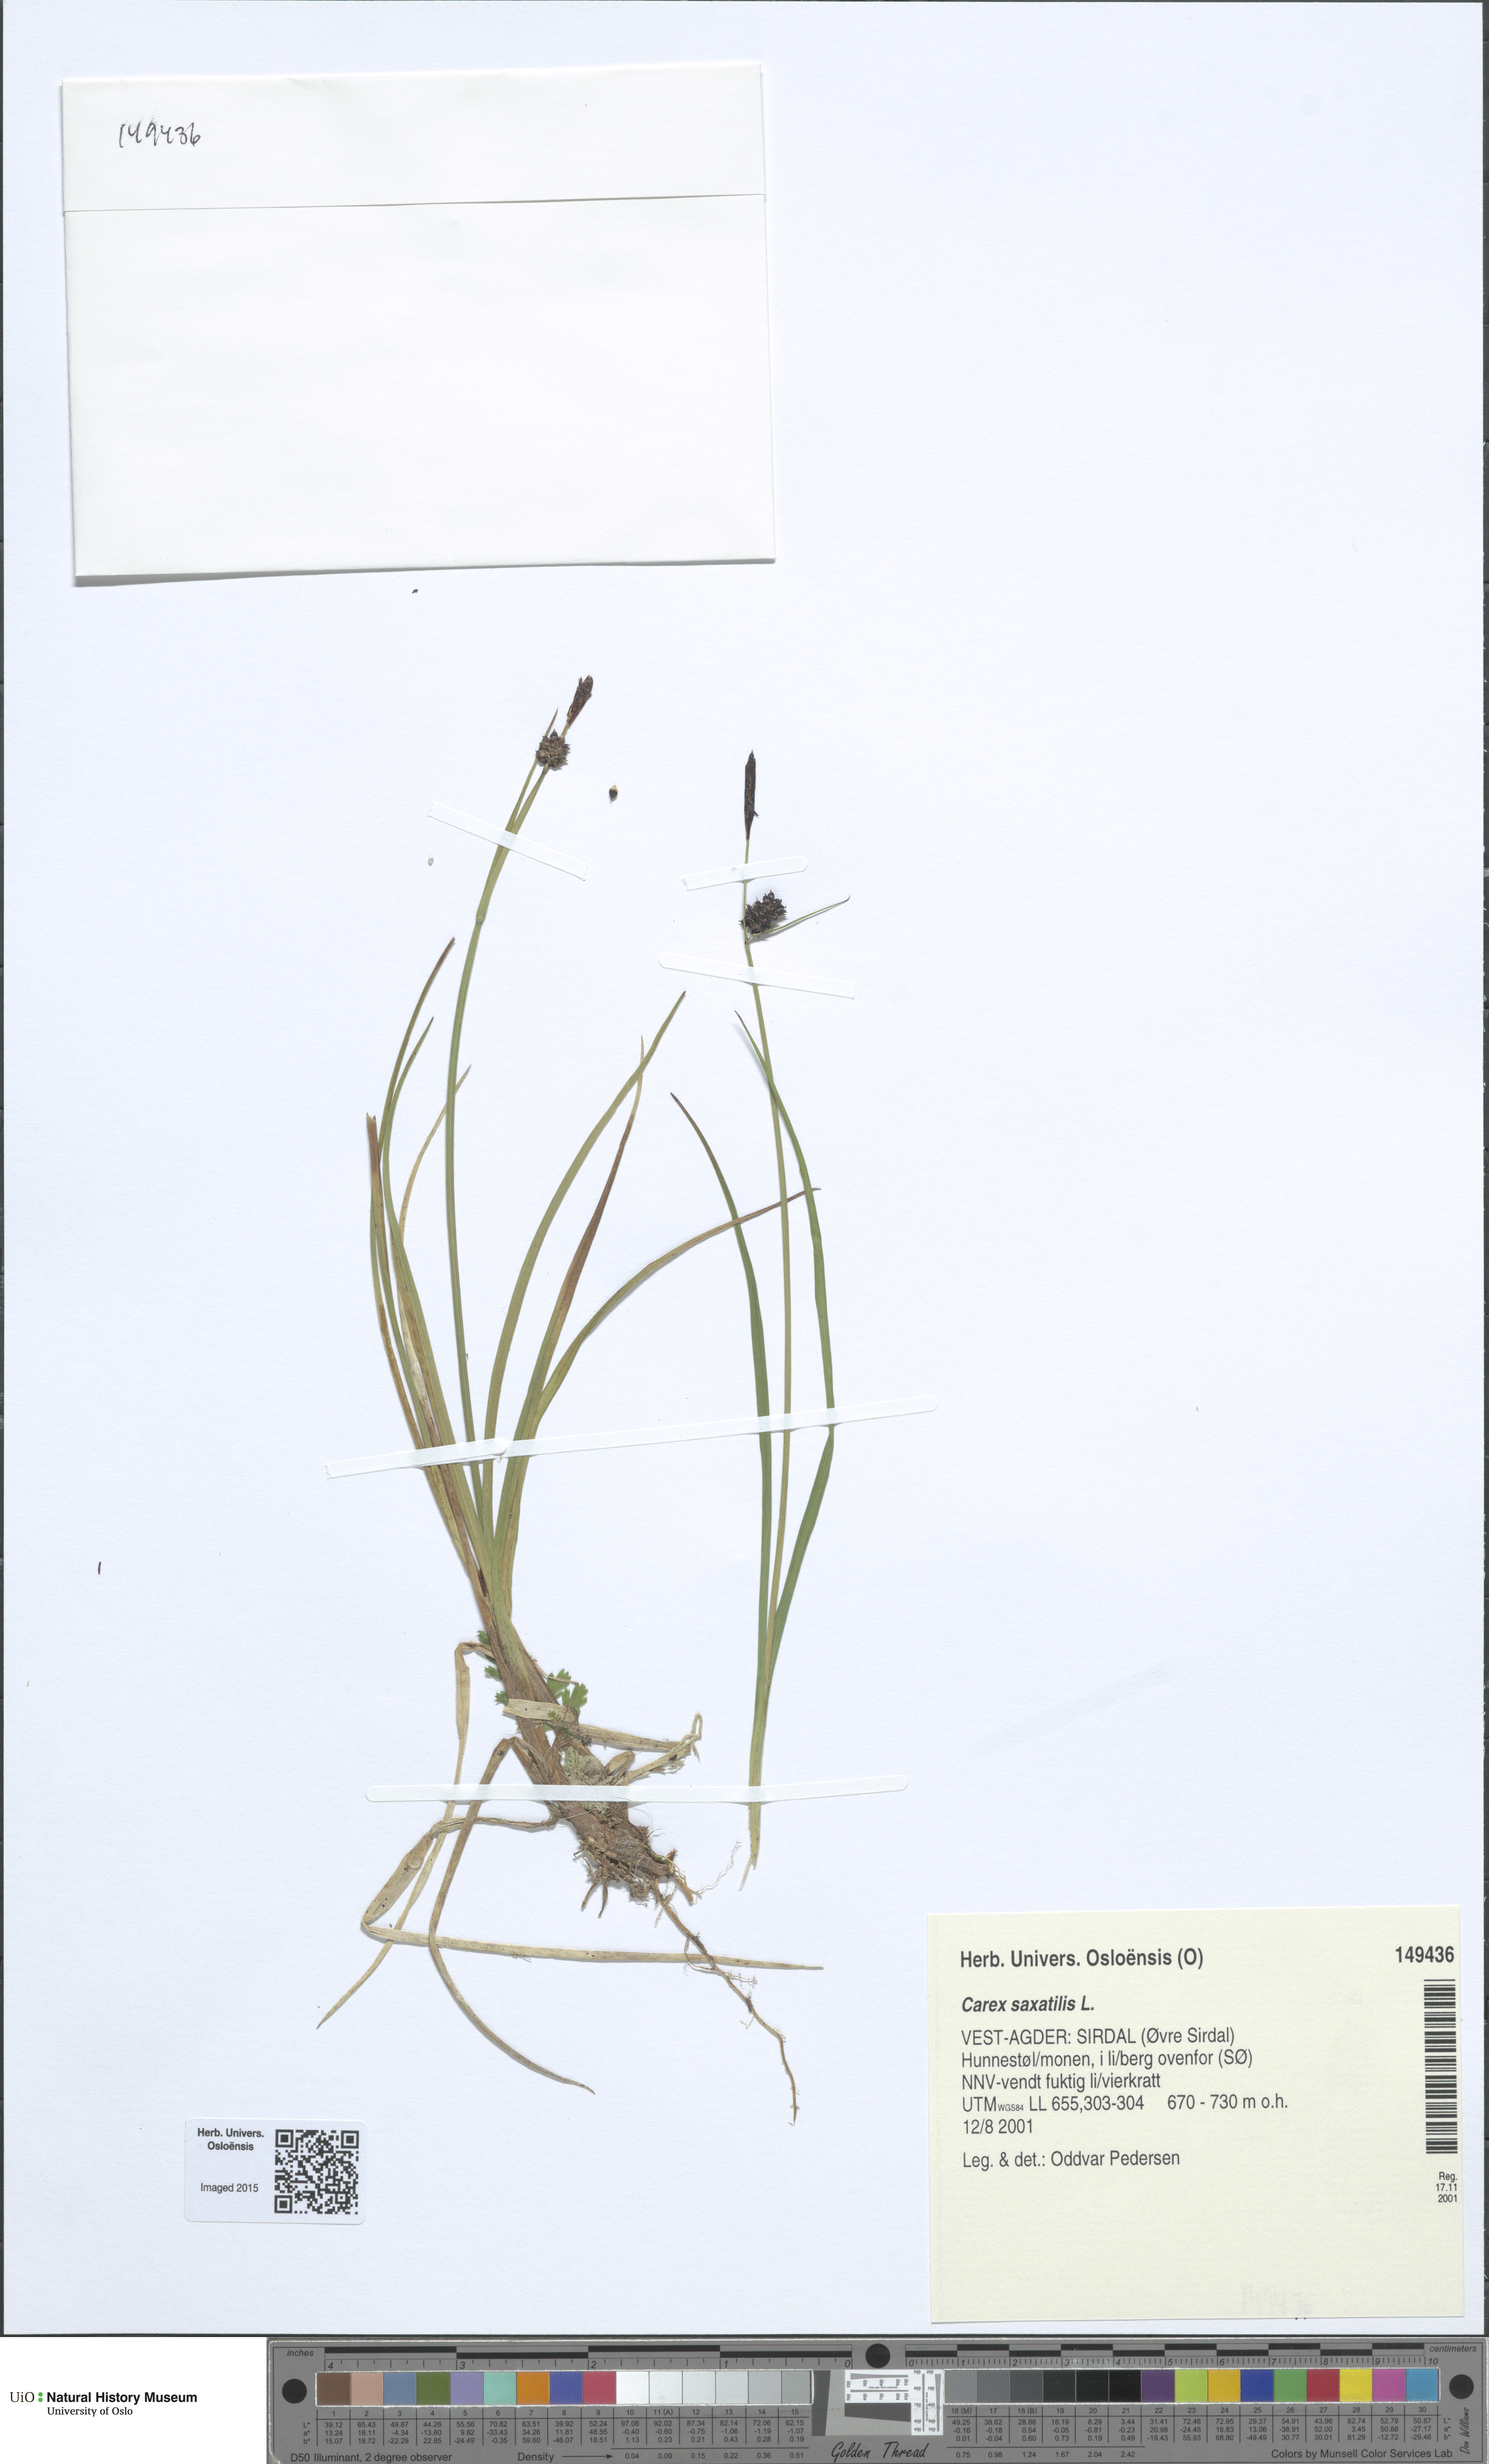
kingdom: Plantae
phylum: Tracheophyta
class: Liliopsida
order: Poales
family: Cyperaceae
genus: Carex
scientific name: Carex saxatilis
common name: Russet sedge
